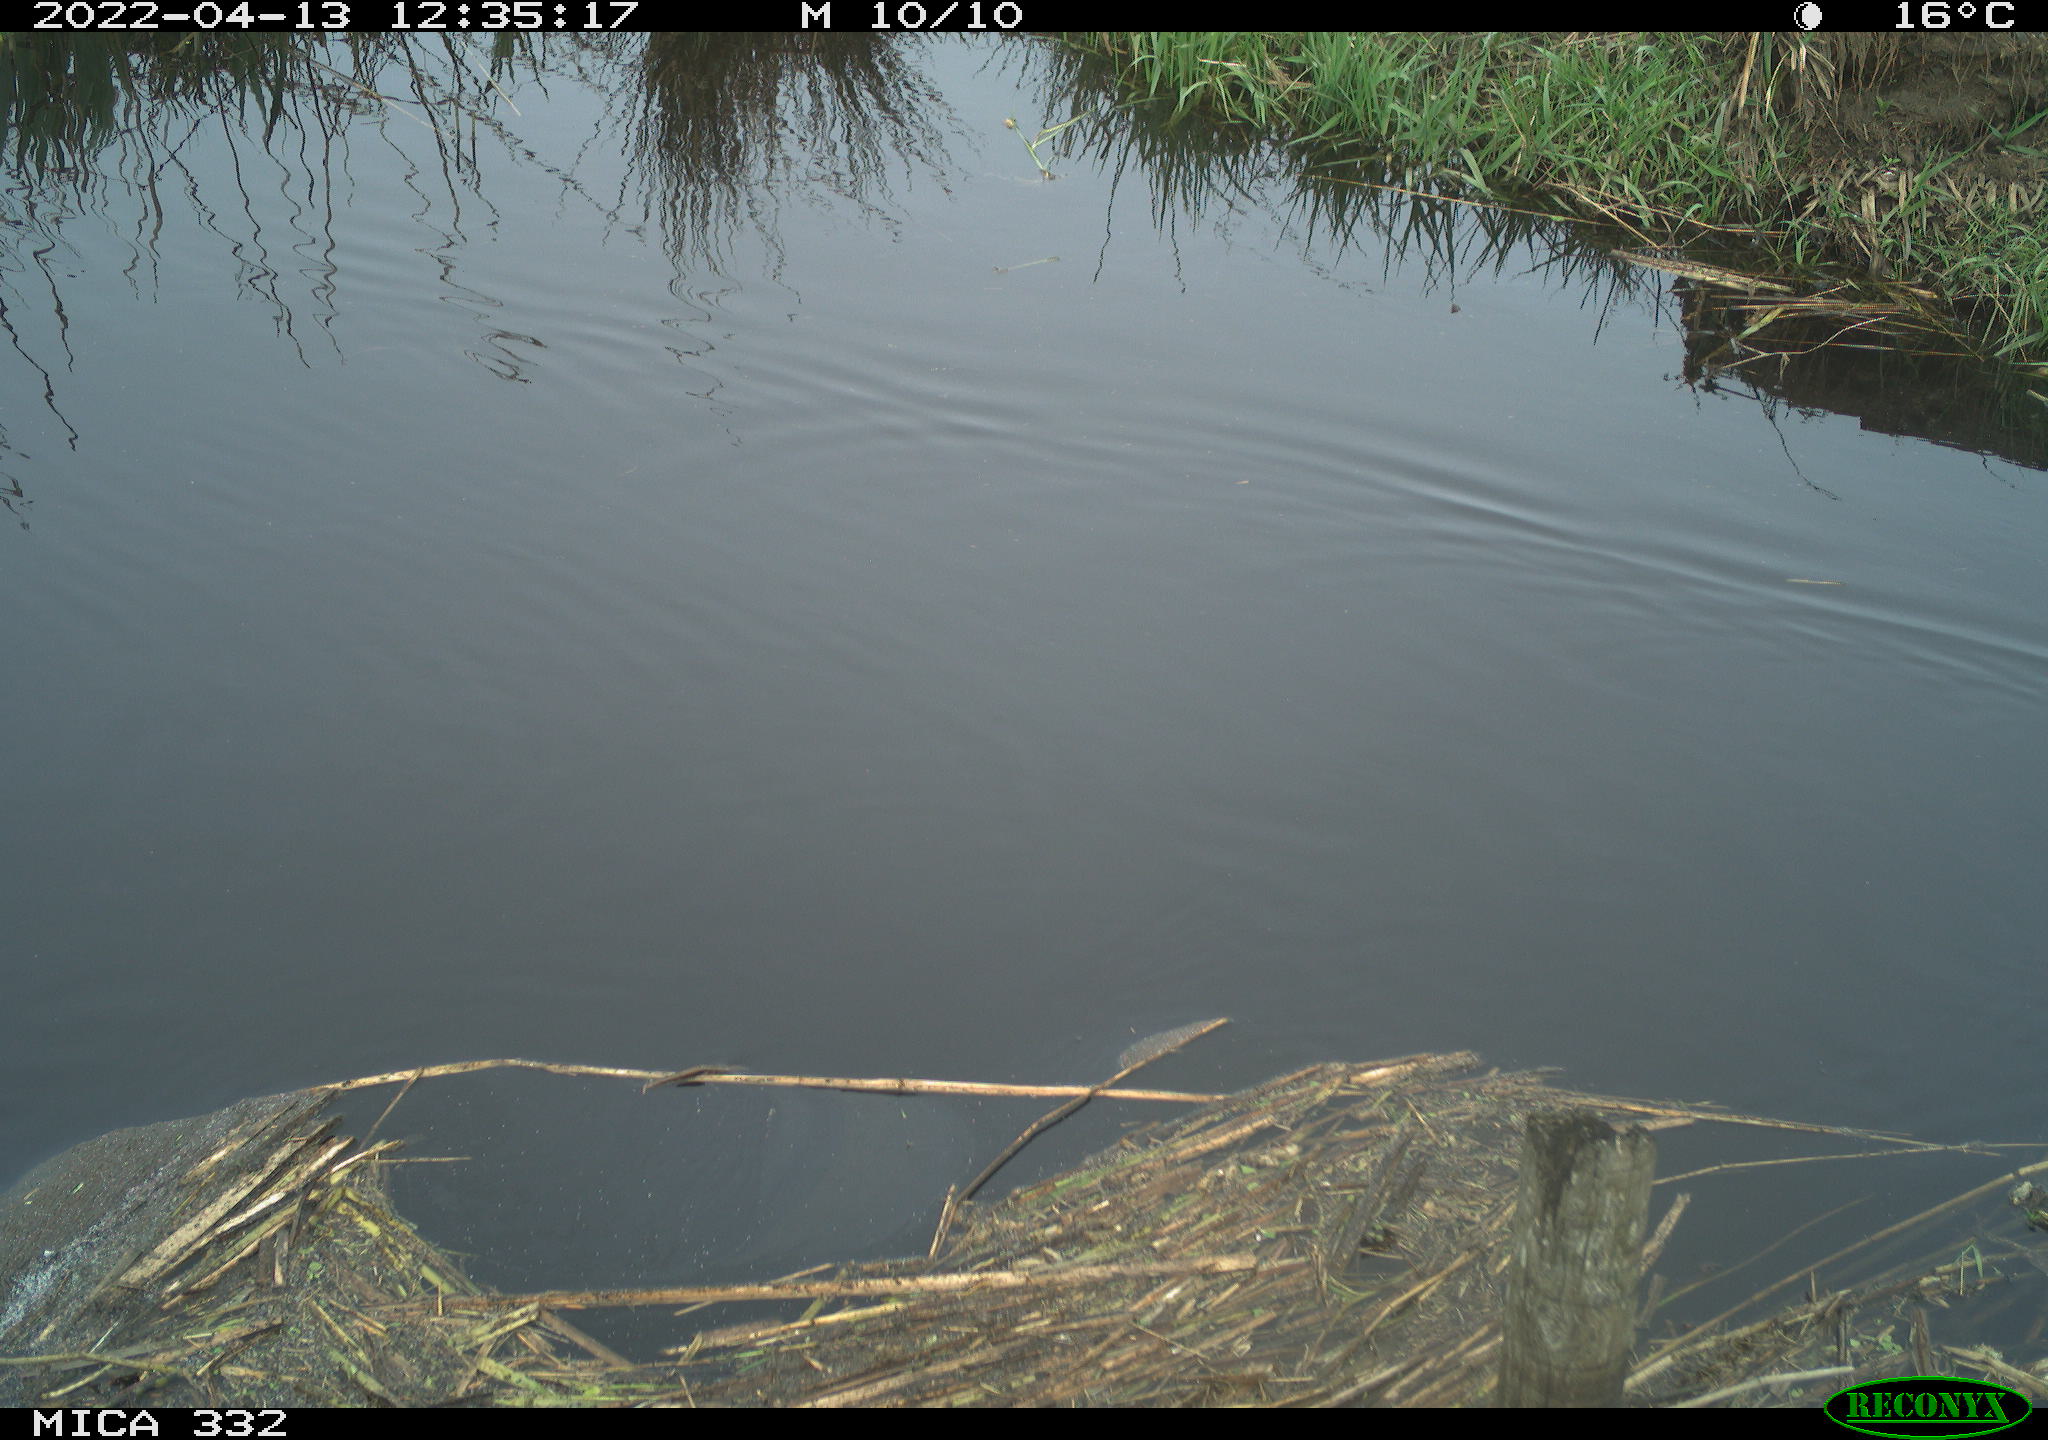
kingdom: Animalia
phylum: Chordata
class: Aves
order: Gruiformes
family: Rallidae
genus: Gallinula
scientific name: Gallinula chloropus
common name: Common moorhen
